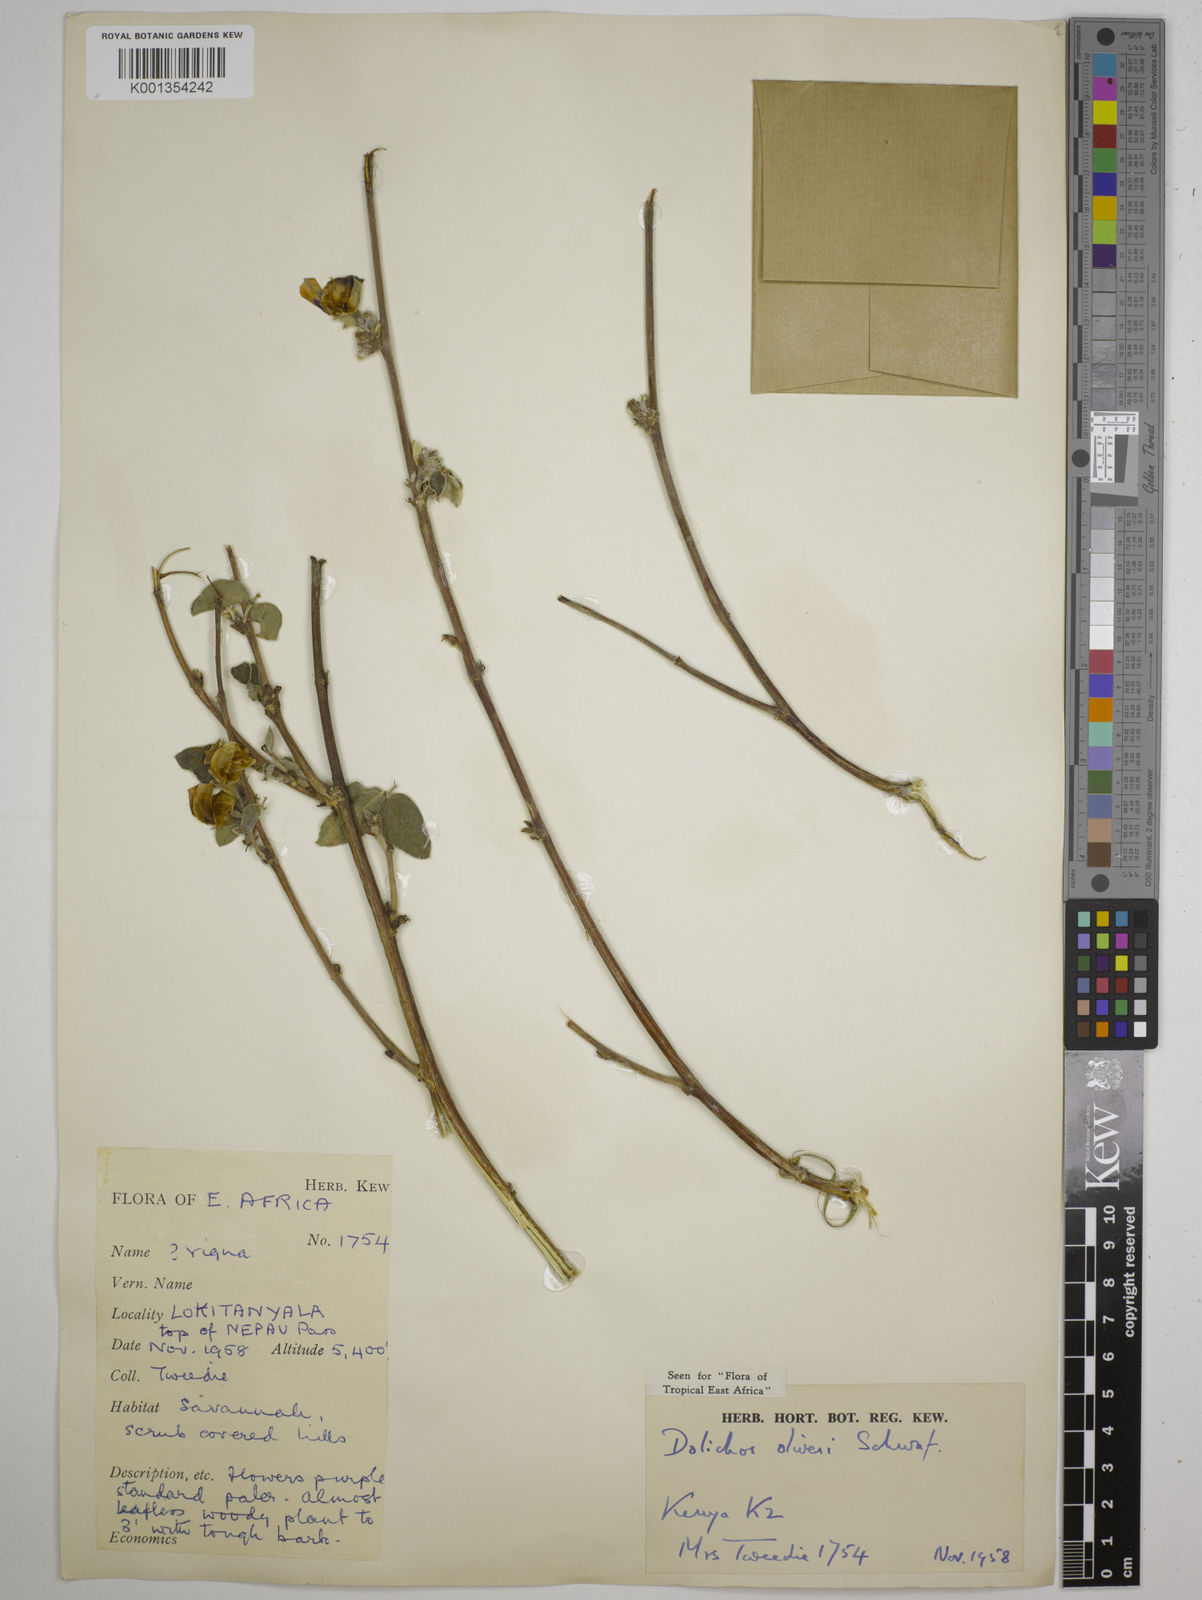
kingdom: Plantae
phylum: Tracheophyta
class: Magnoliopsida
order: Fabales
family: Fabaceae
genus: Dolichos
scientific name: Dolichos oliveri
